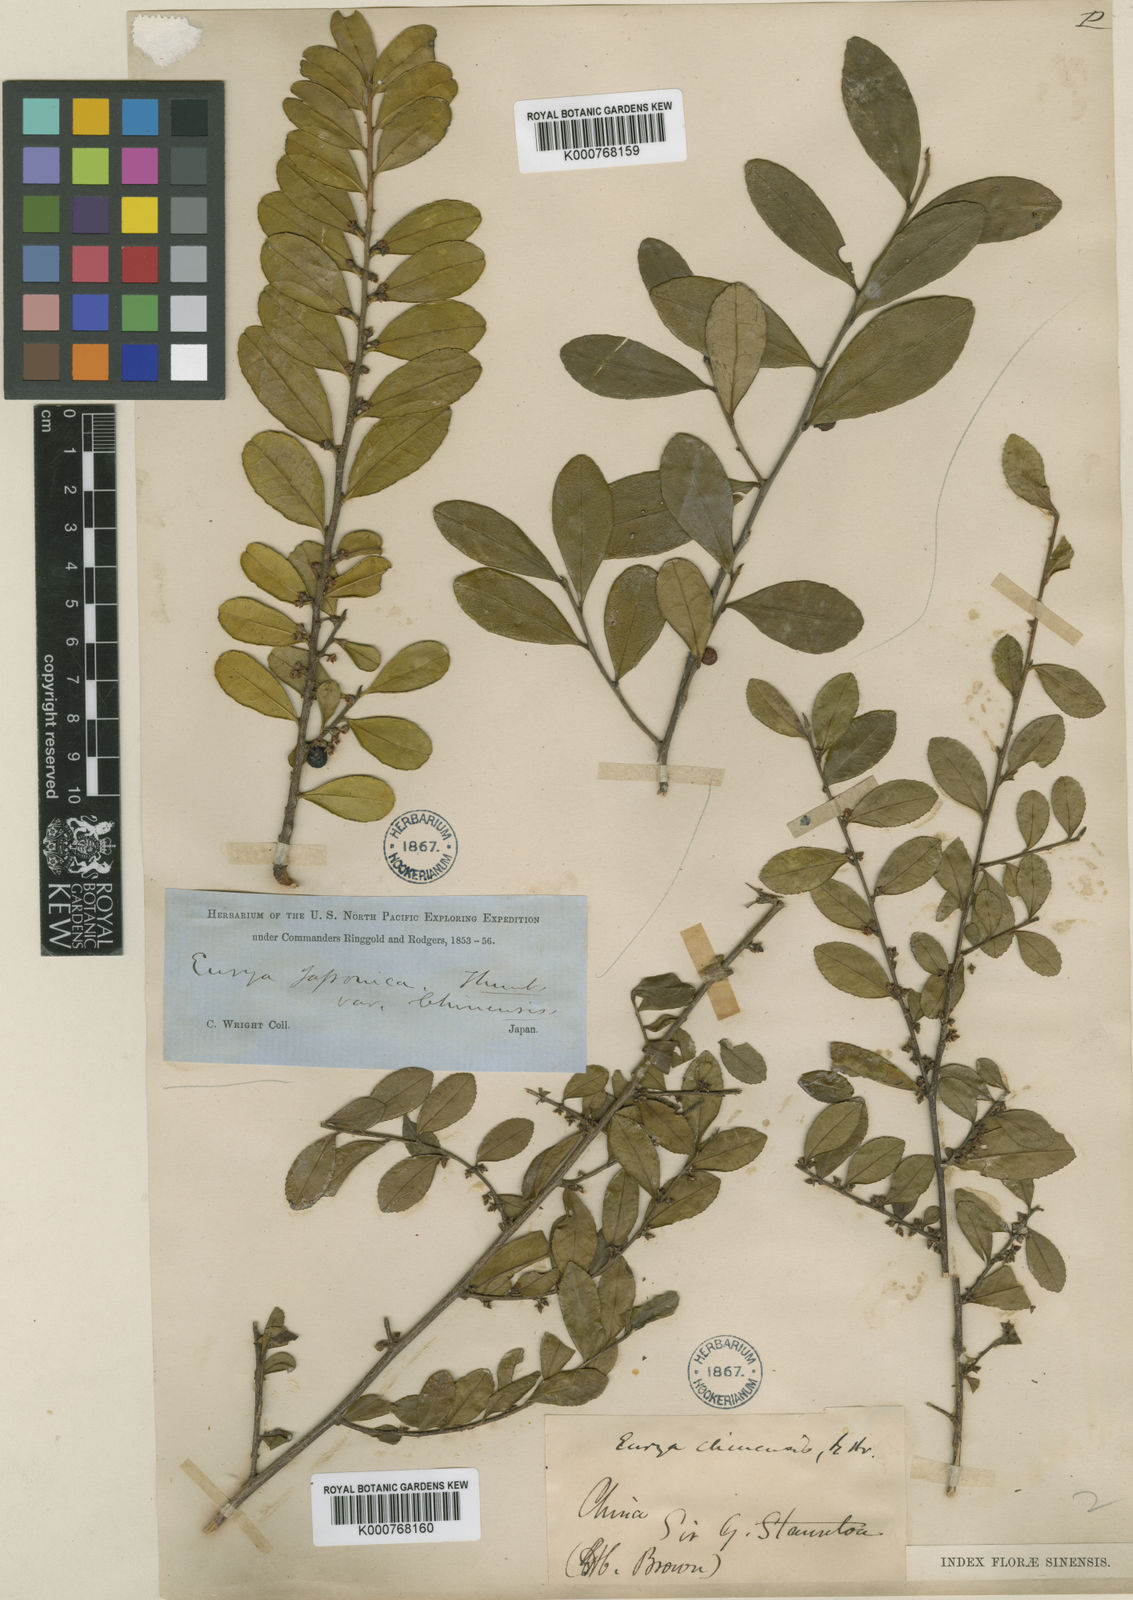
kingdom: Plantae
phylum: Tracheophyta
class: Magnoliopsida
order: Ericales
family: Pentaphylacaceae
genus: Eurya
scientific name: Eurya chinensis
